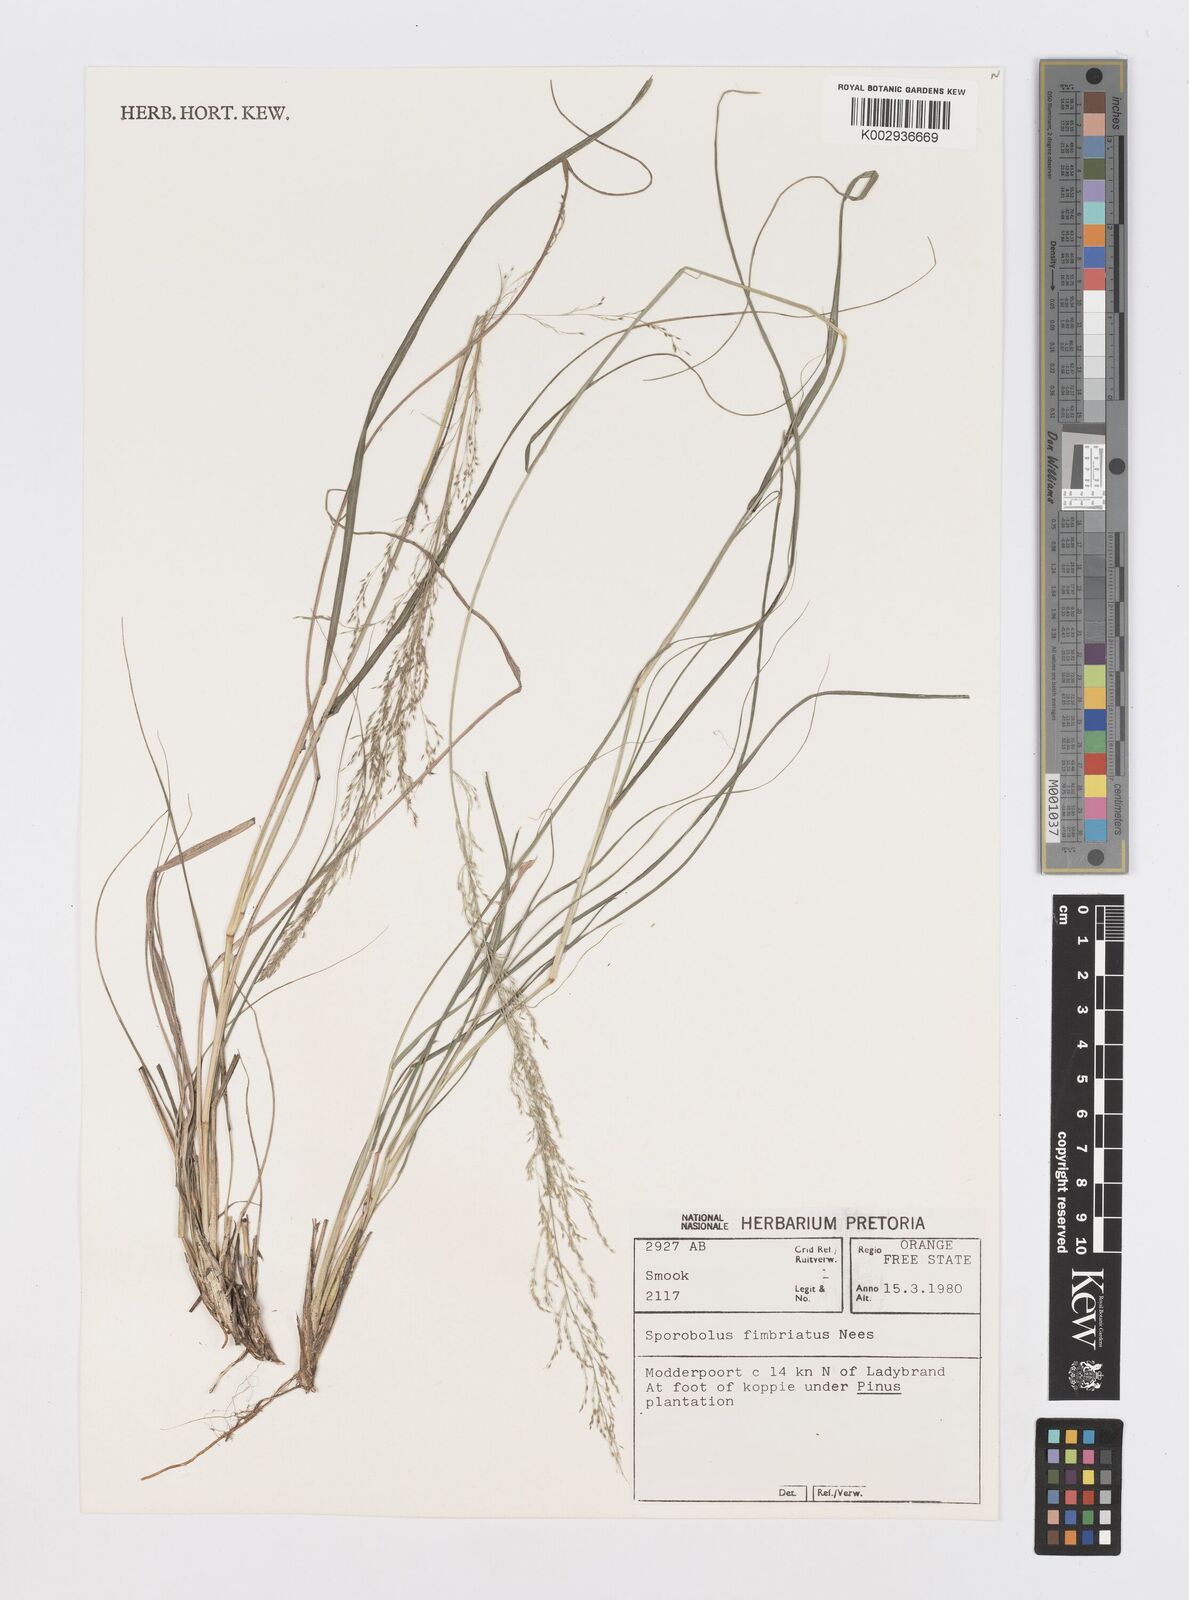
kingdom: Plantae
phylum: Tracheophyta
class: Liliopsida
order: Poales
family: Poaceae
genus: Sporobolus
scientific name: Sporobolus fimbriatus
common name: Fringed dropseed
